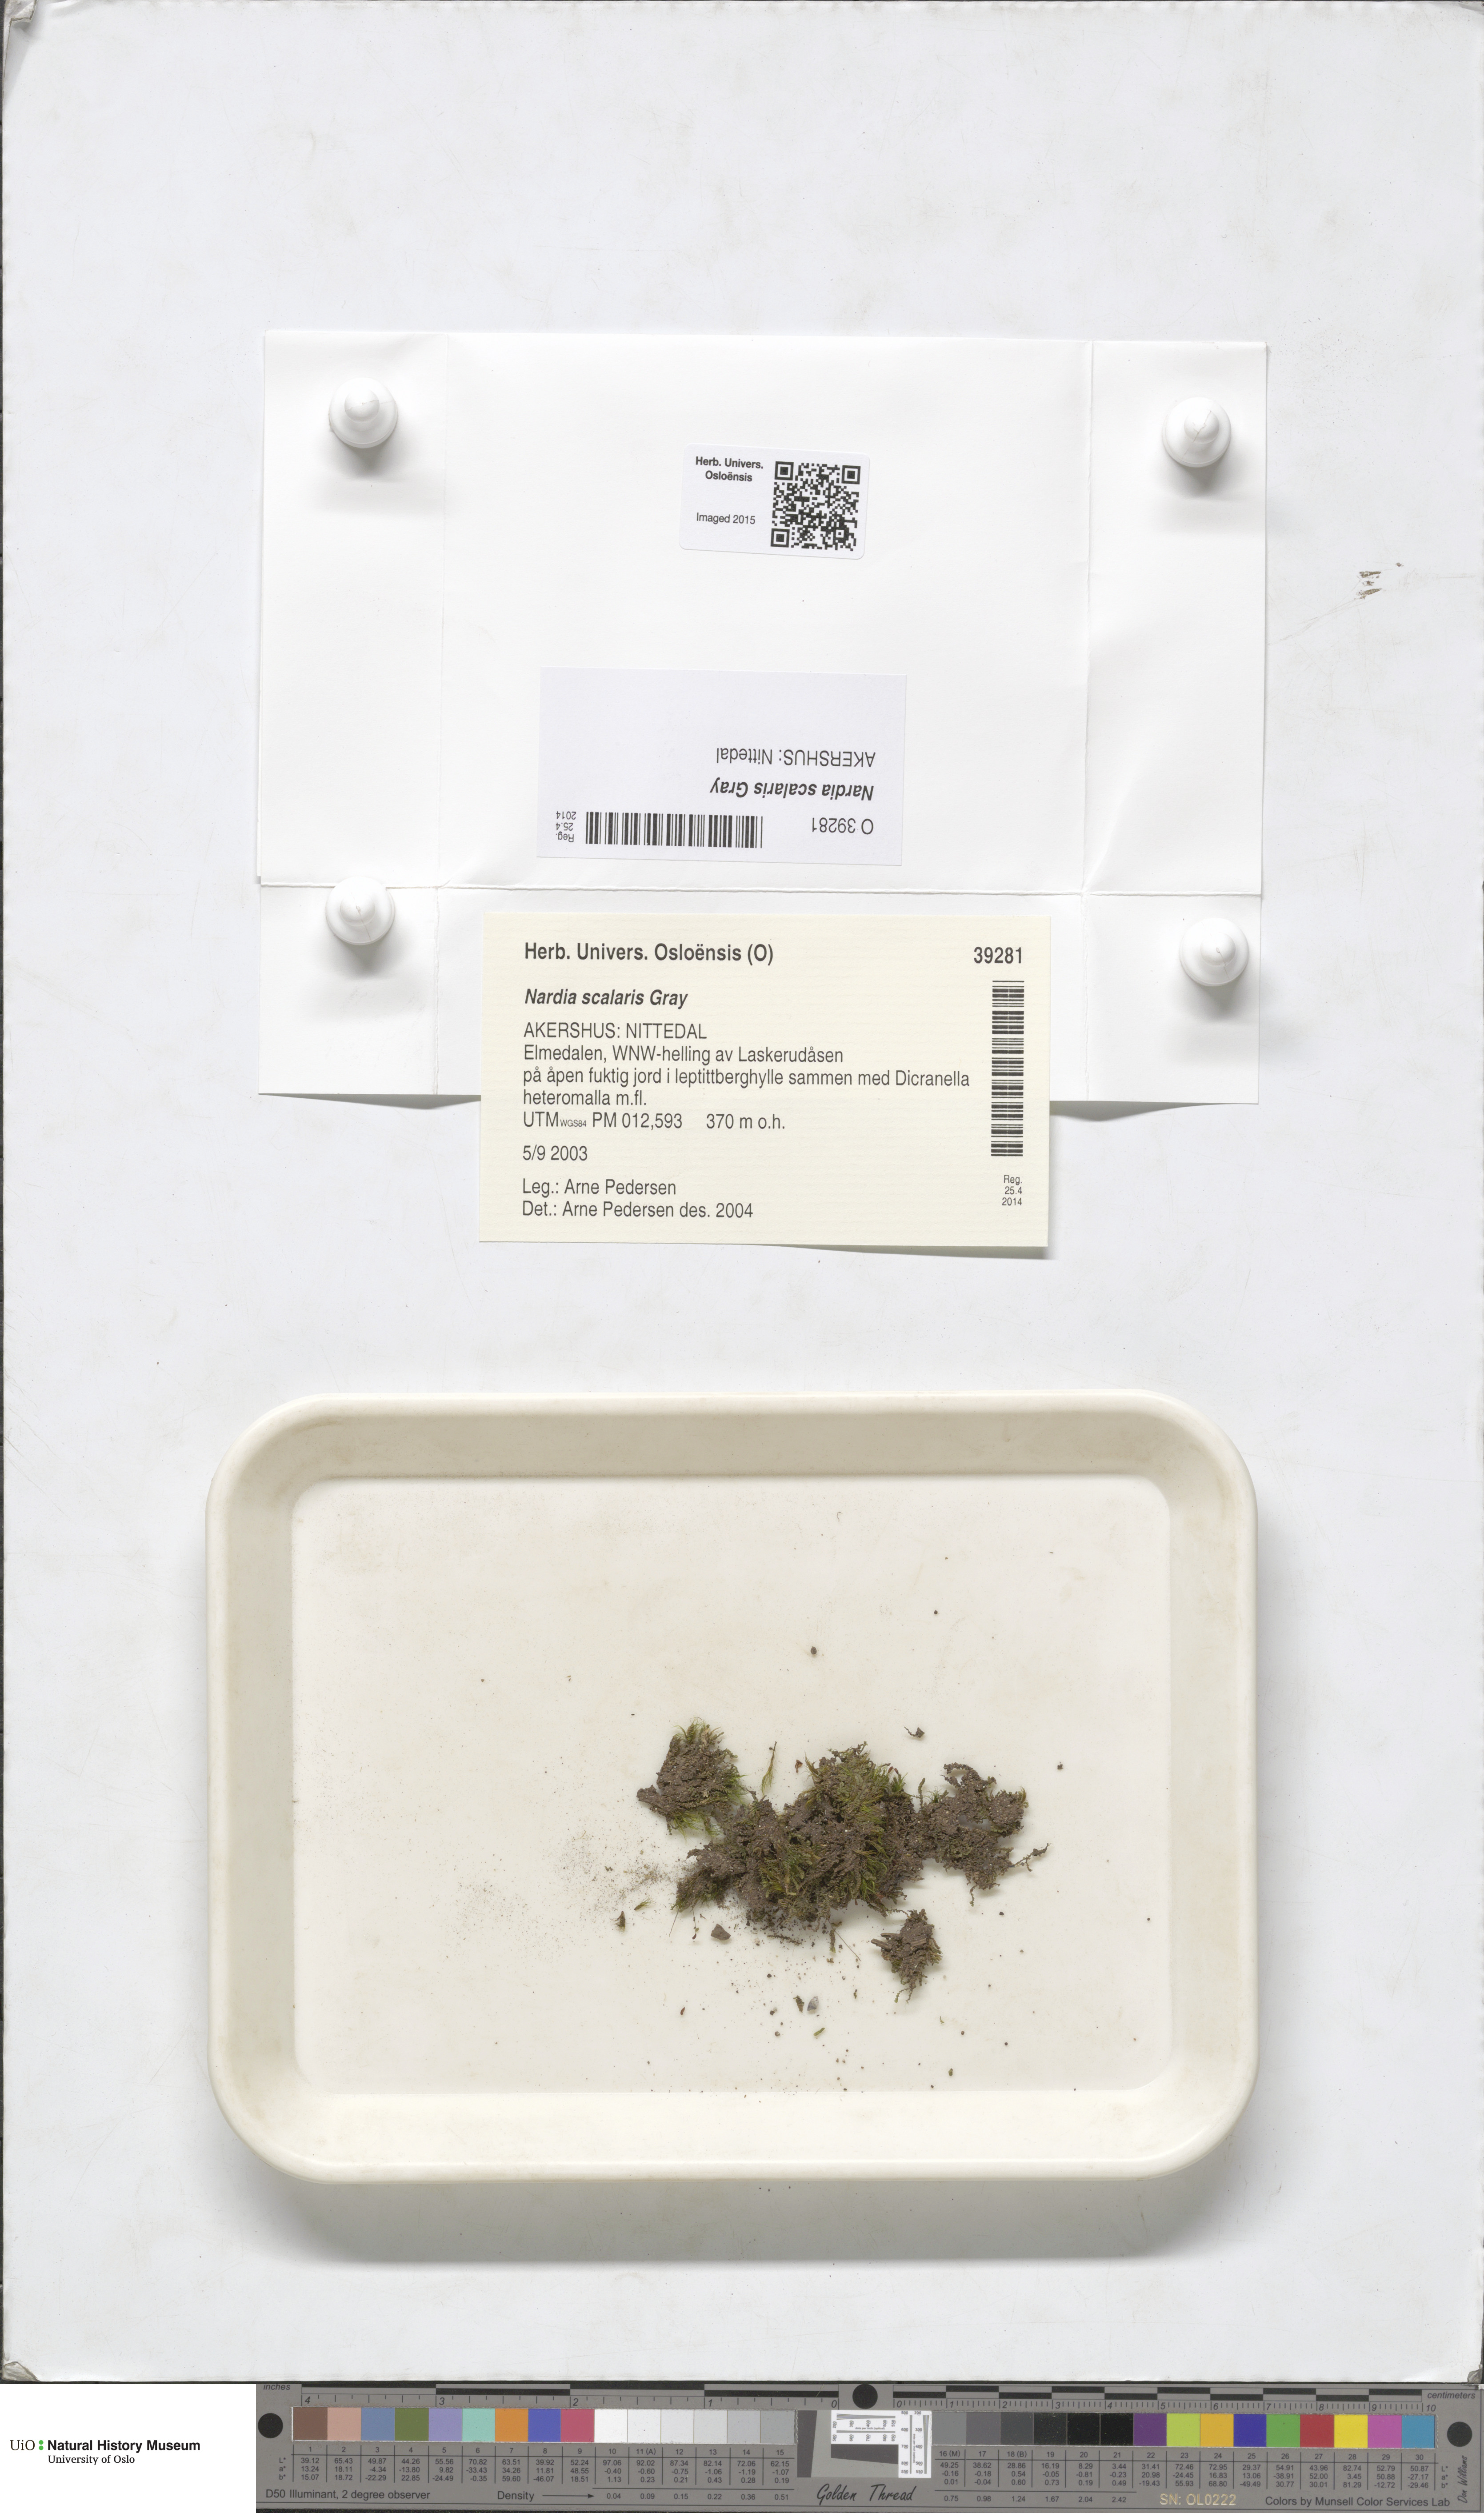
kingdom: Plantae
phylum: Marchantiophyta
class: Jungermanniopsida
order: Jungermanniales
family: Gymnomitriaceae
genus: Nardia
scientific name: Nardia scalaris
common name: Ladder flapwort
